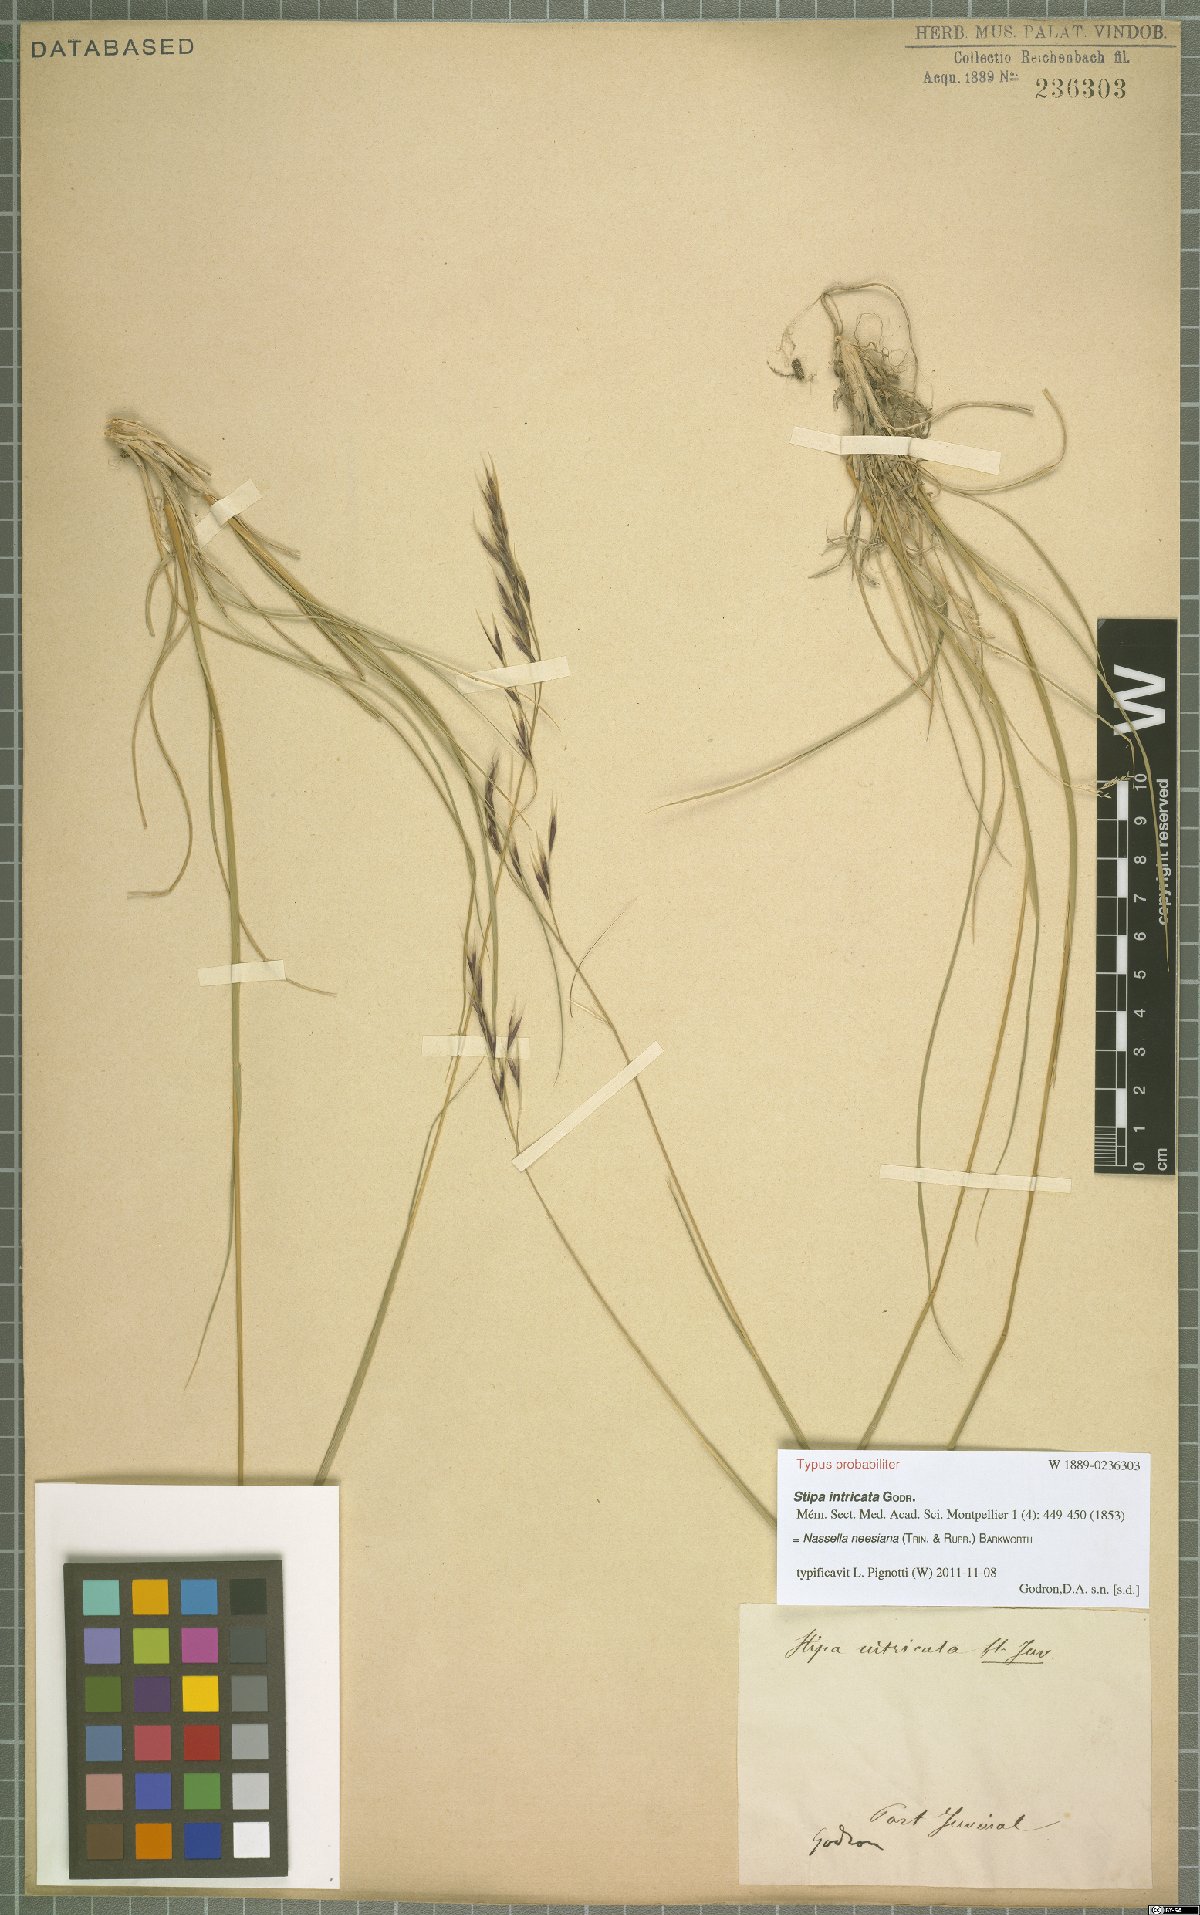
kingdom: Plantae
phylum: Tracheophyta
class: Liliopsida
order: Poales
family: Poaceae
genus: Nassella
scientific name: Nassella neesiana
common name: American needle-grass
